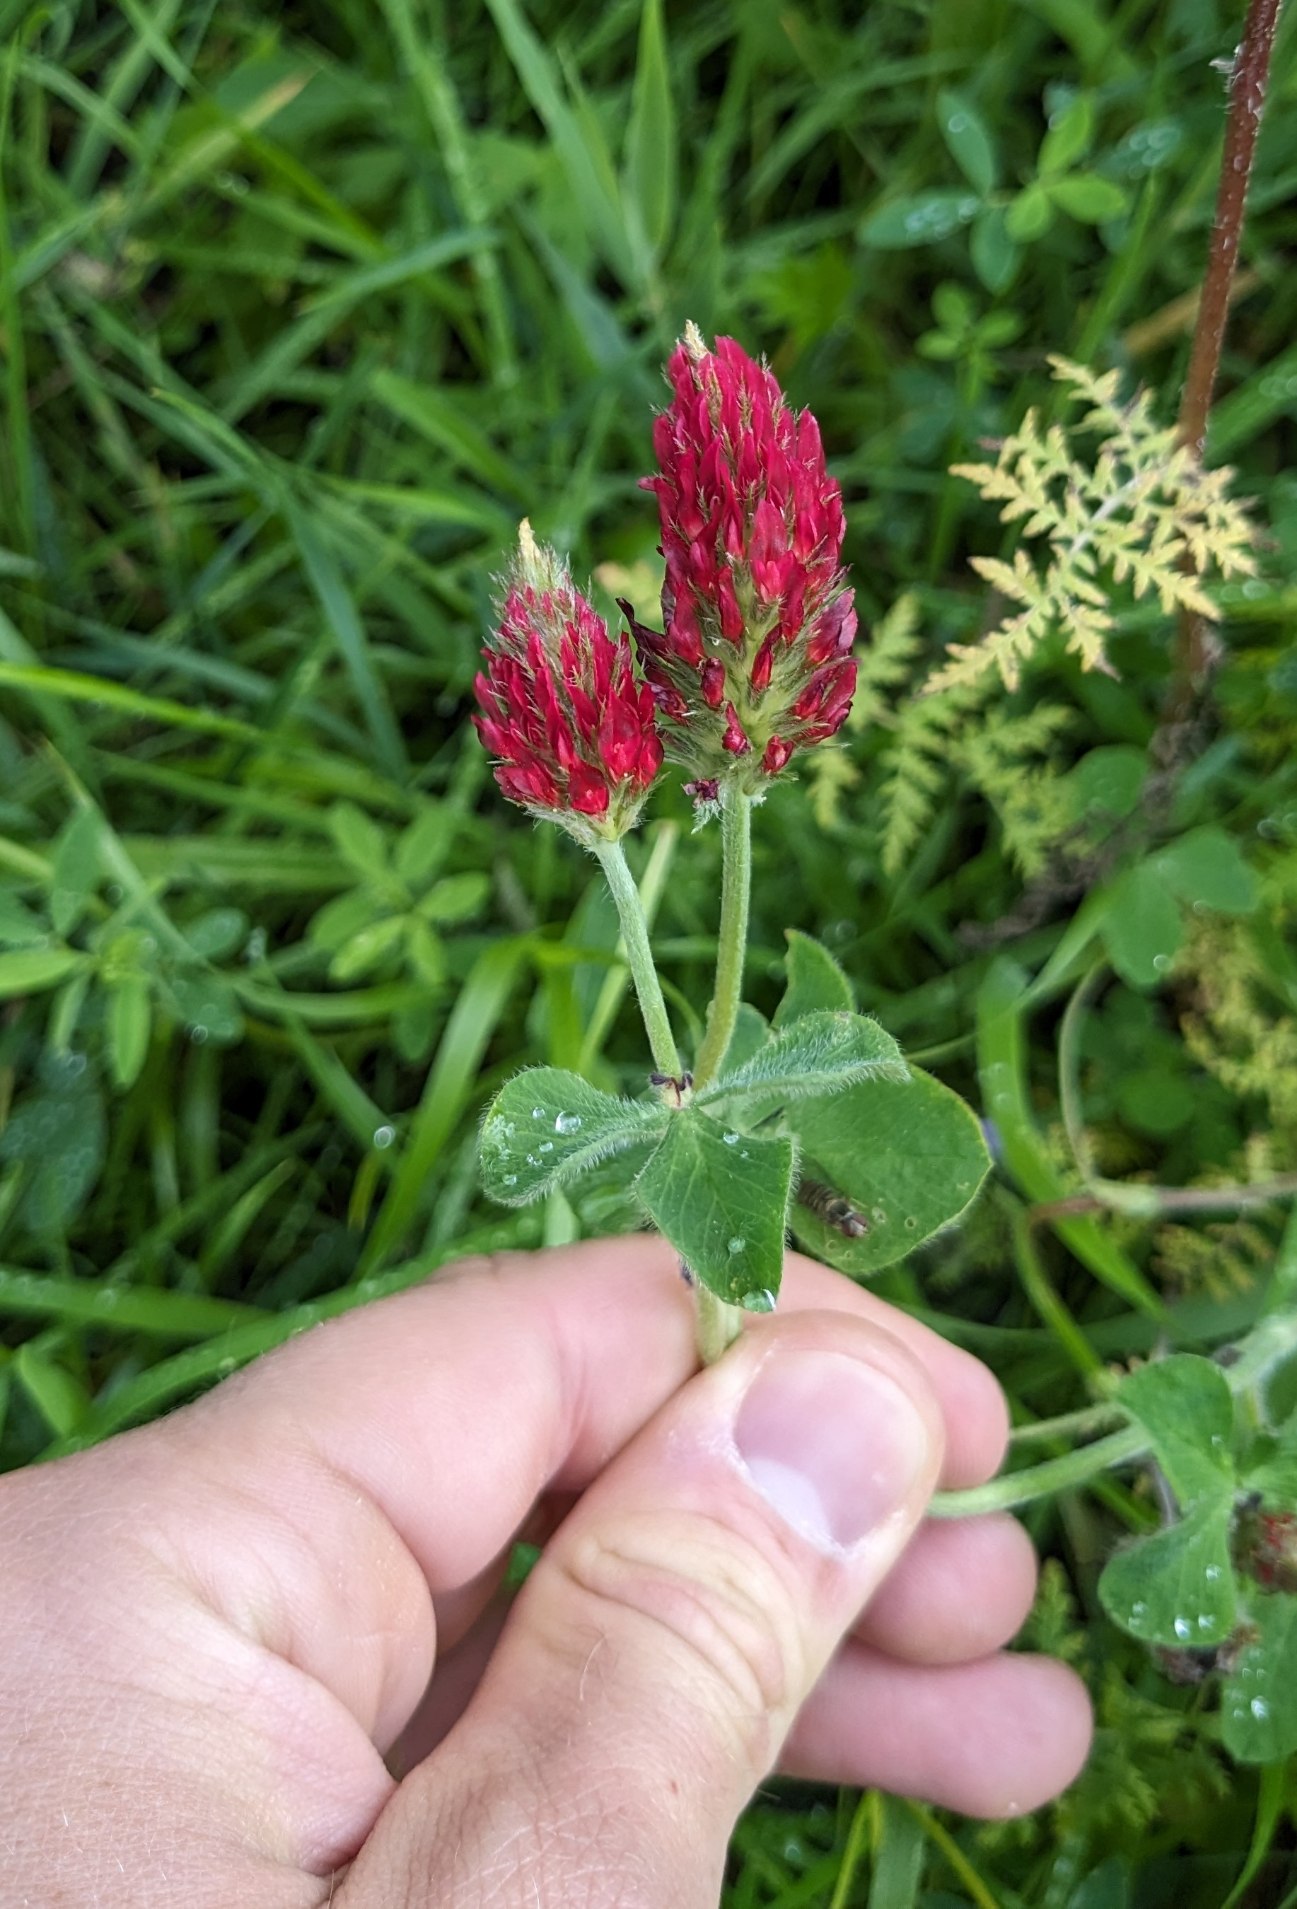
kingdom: Plantae
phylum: Tracheophyta
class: Magnoliopsida
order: Fabales
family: Fabaceae
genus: Trifolium
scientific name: Trifolium incarnatum
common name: Blod-kløver
